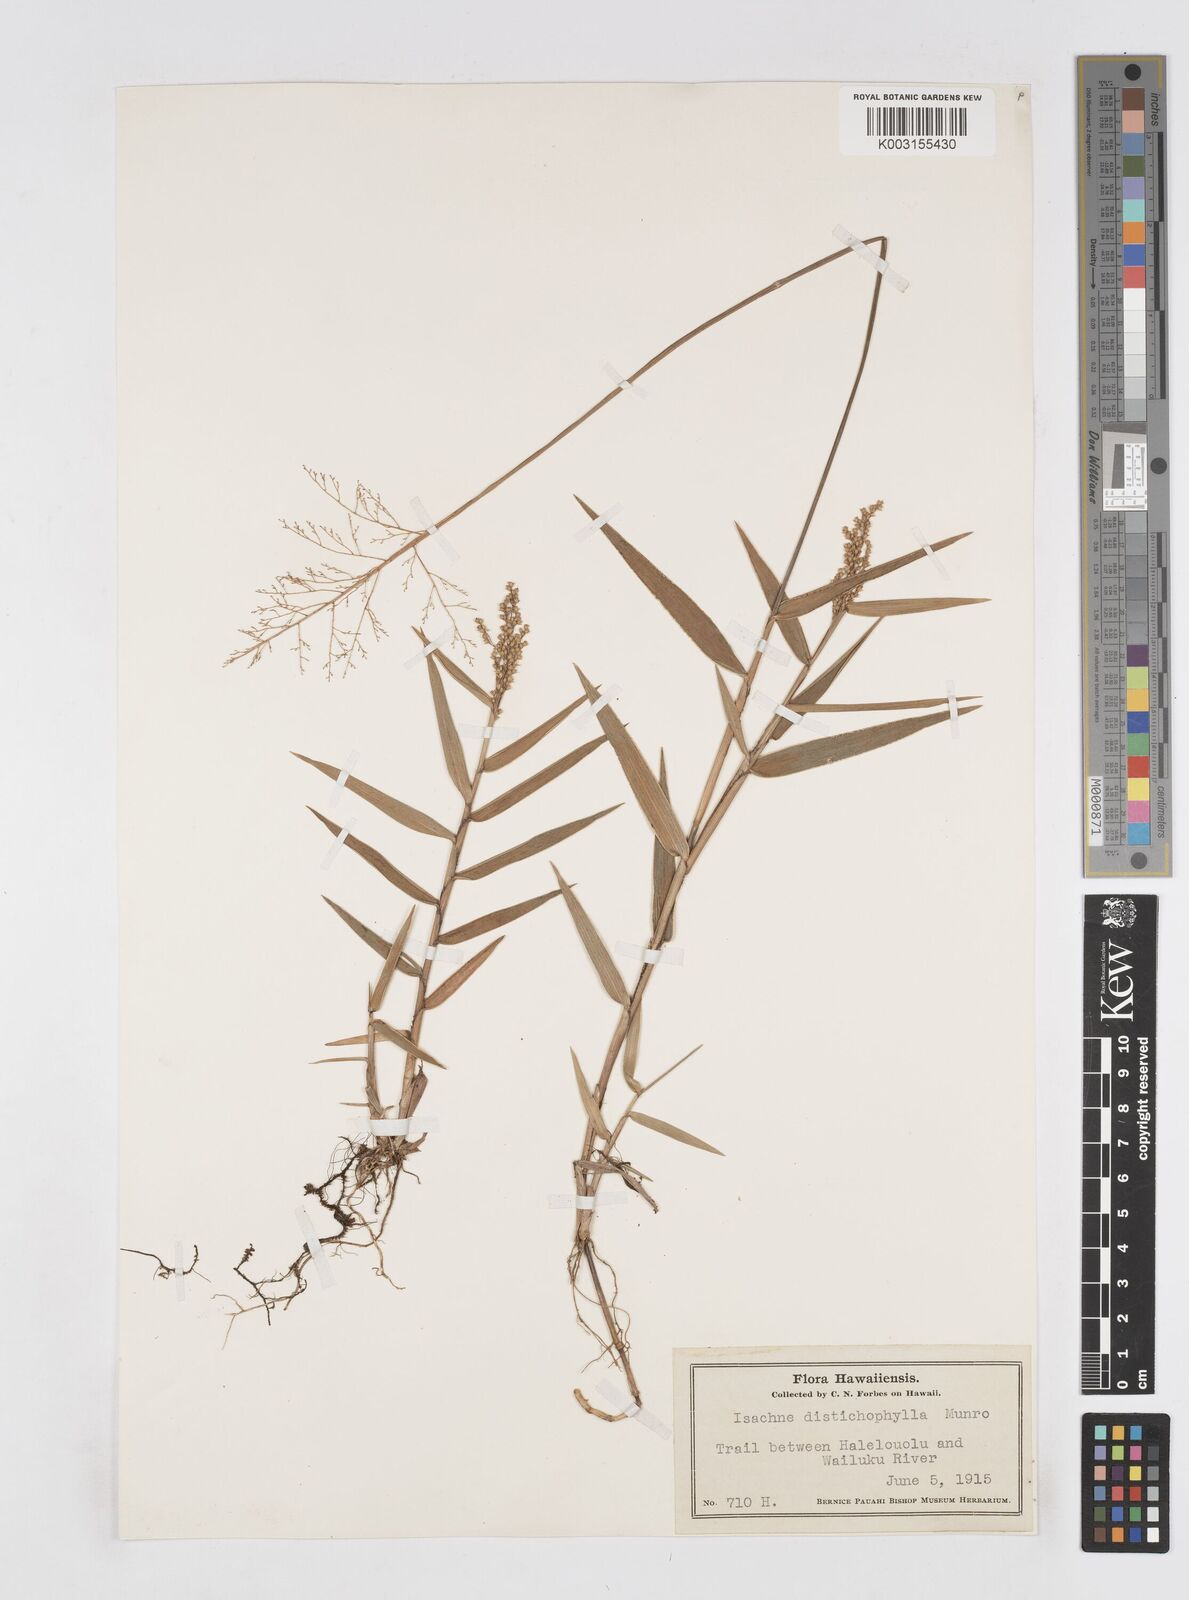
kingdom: Plantae
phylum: Tracheophyta
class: Liliopsida
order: Poales
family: Poaceae
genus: Isachne
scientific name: Isachne distichophylla
